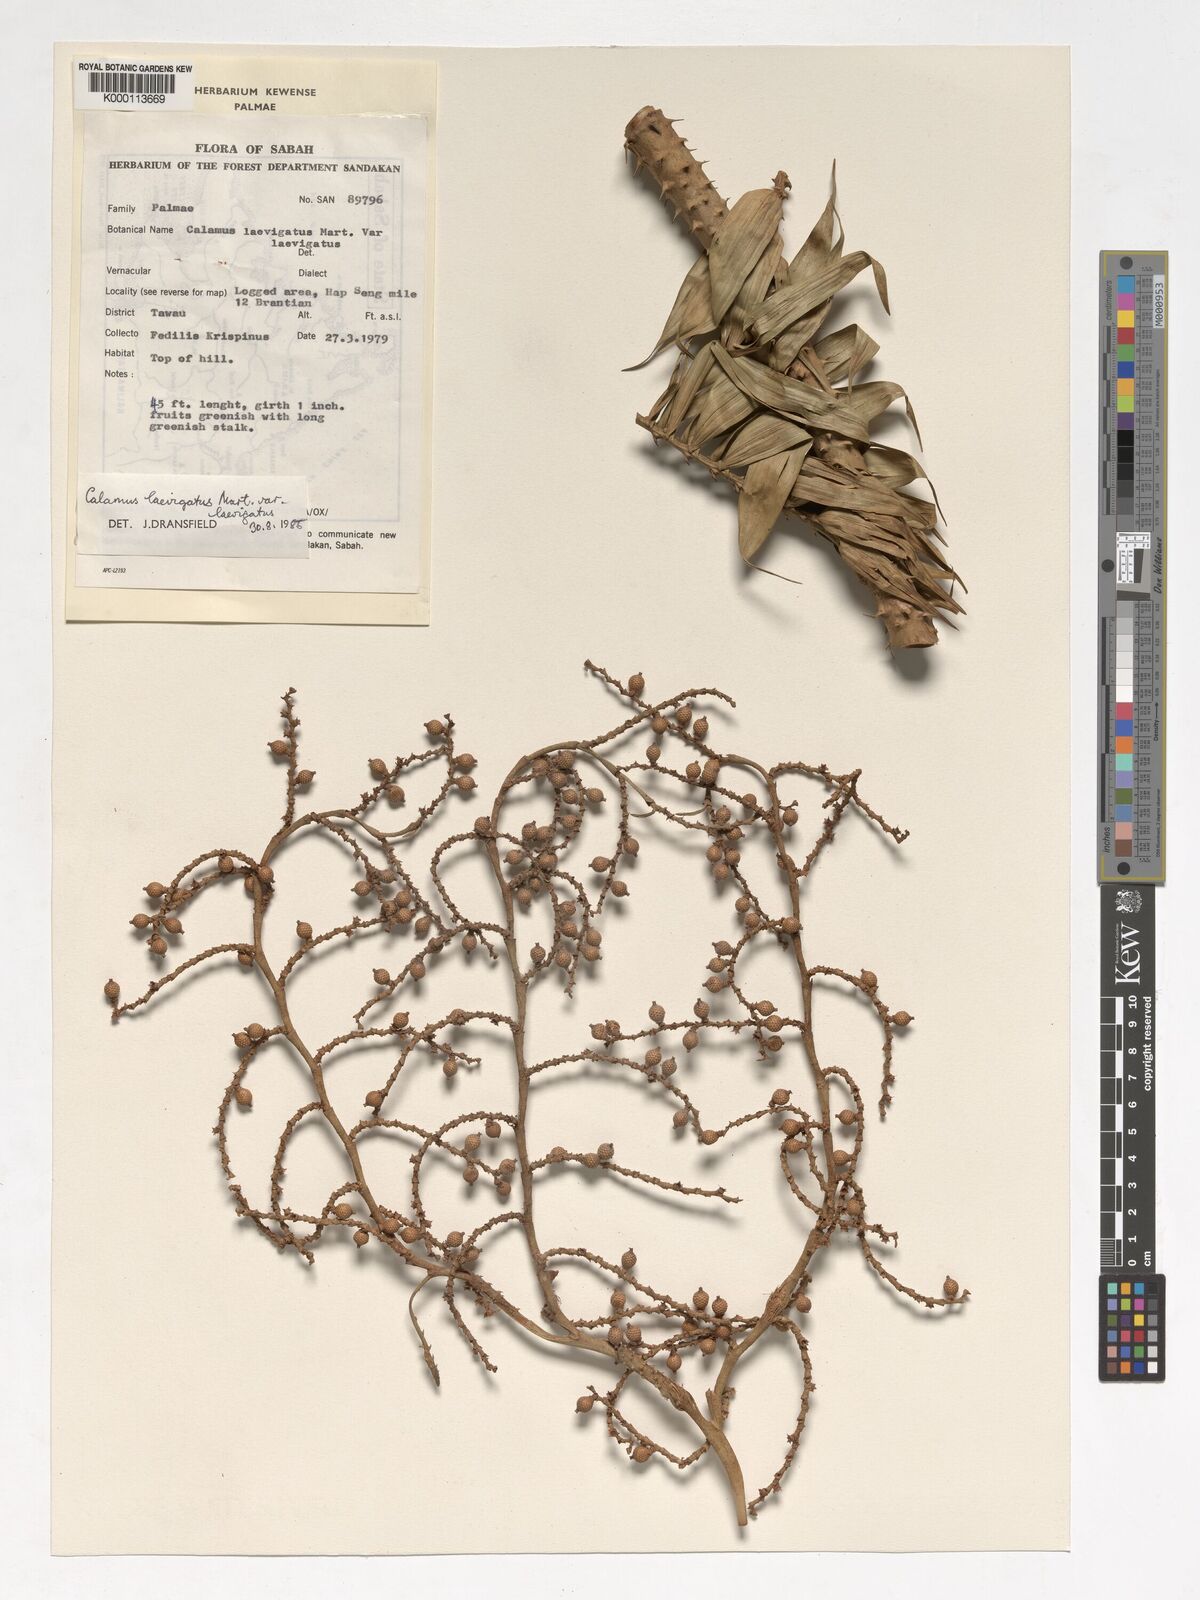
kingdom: Plantae
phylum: Tracheophyta
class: Liliopsida
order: Arecales
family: Arecaceae
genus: Calamus
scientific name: Calamus
